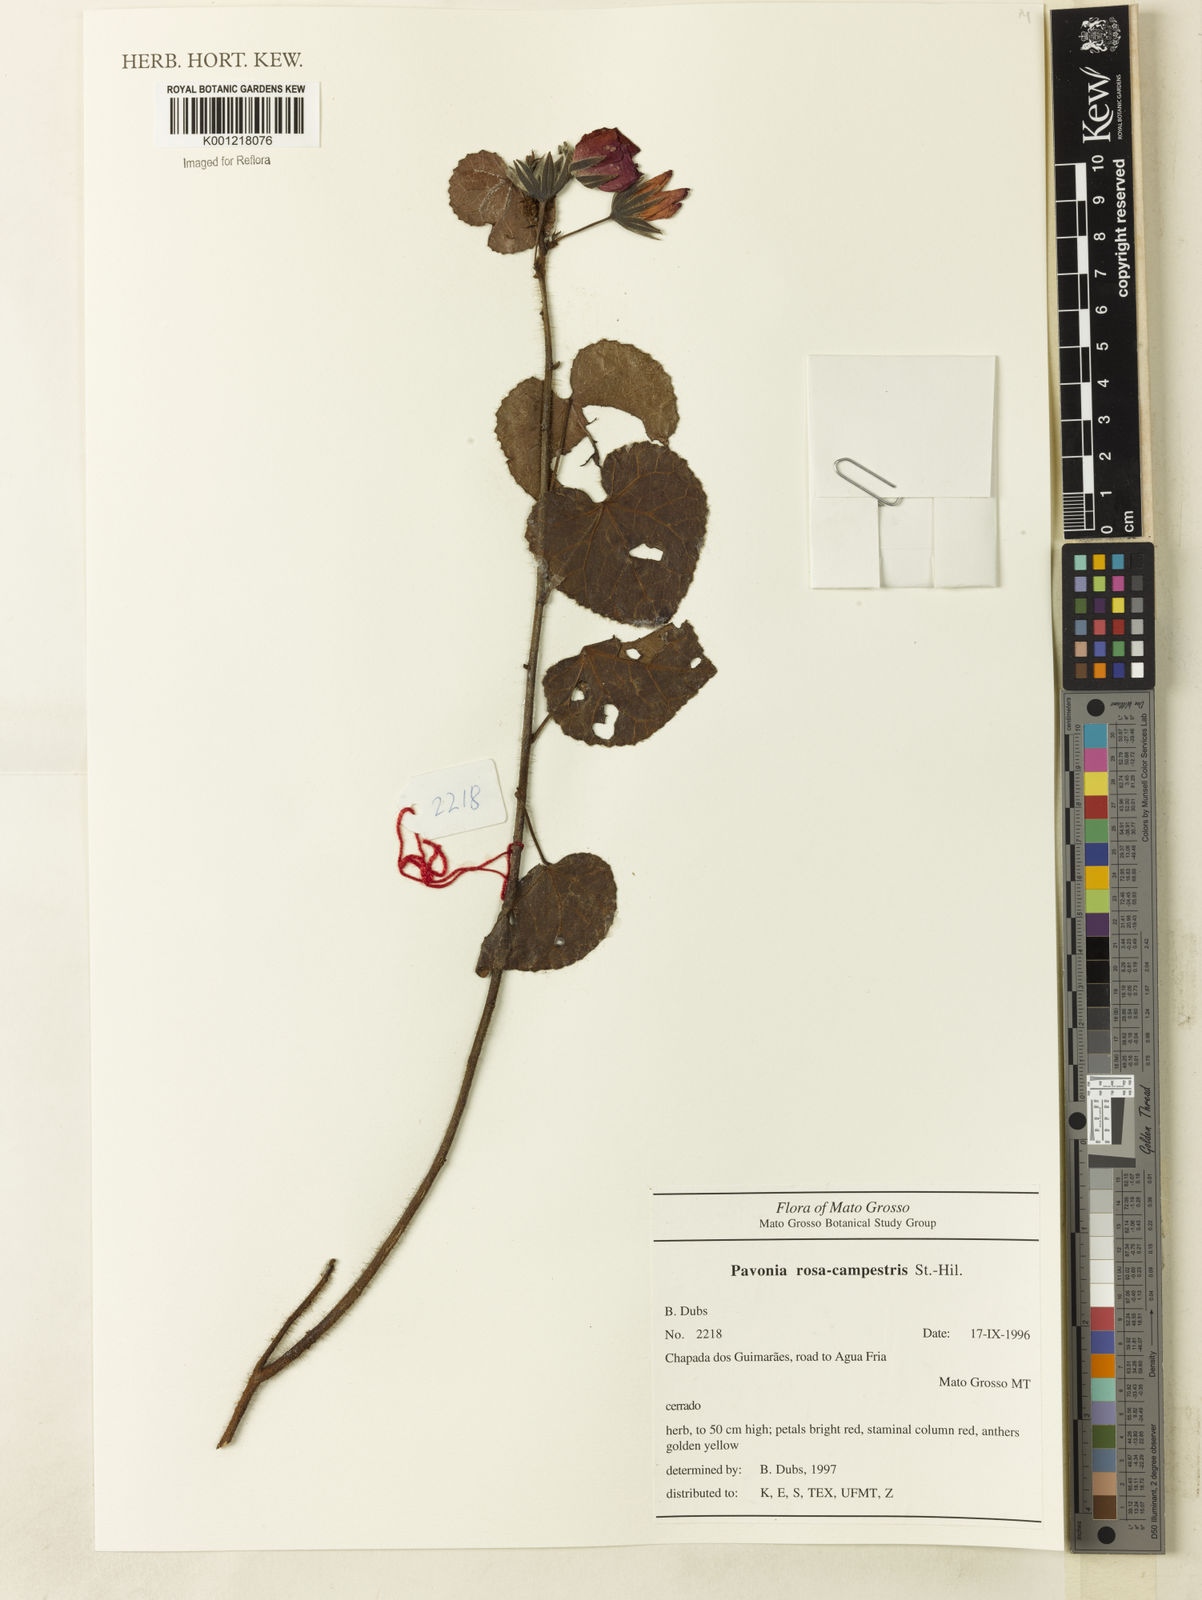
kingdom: Plantae
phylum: Tracheophyta
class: Magnoliopsida
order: Malvales
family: Malvaceae
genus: Pavonia
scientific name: Pavonia rosa-campestris
